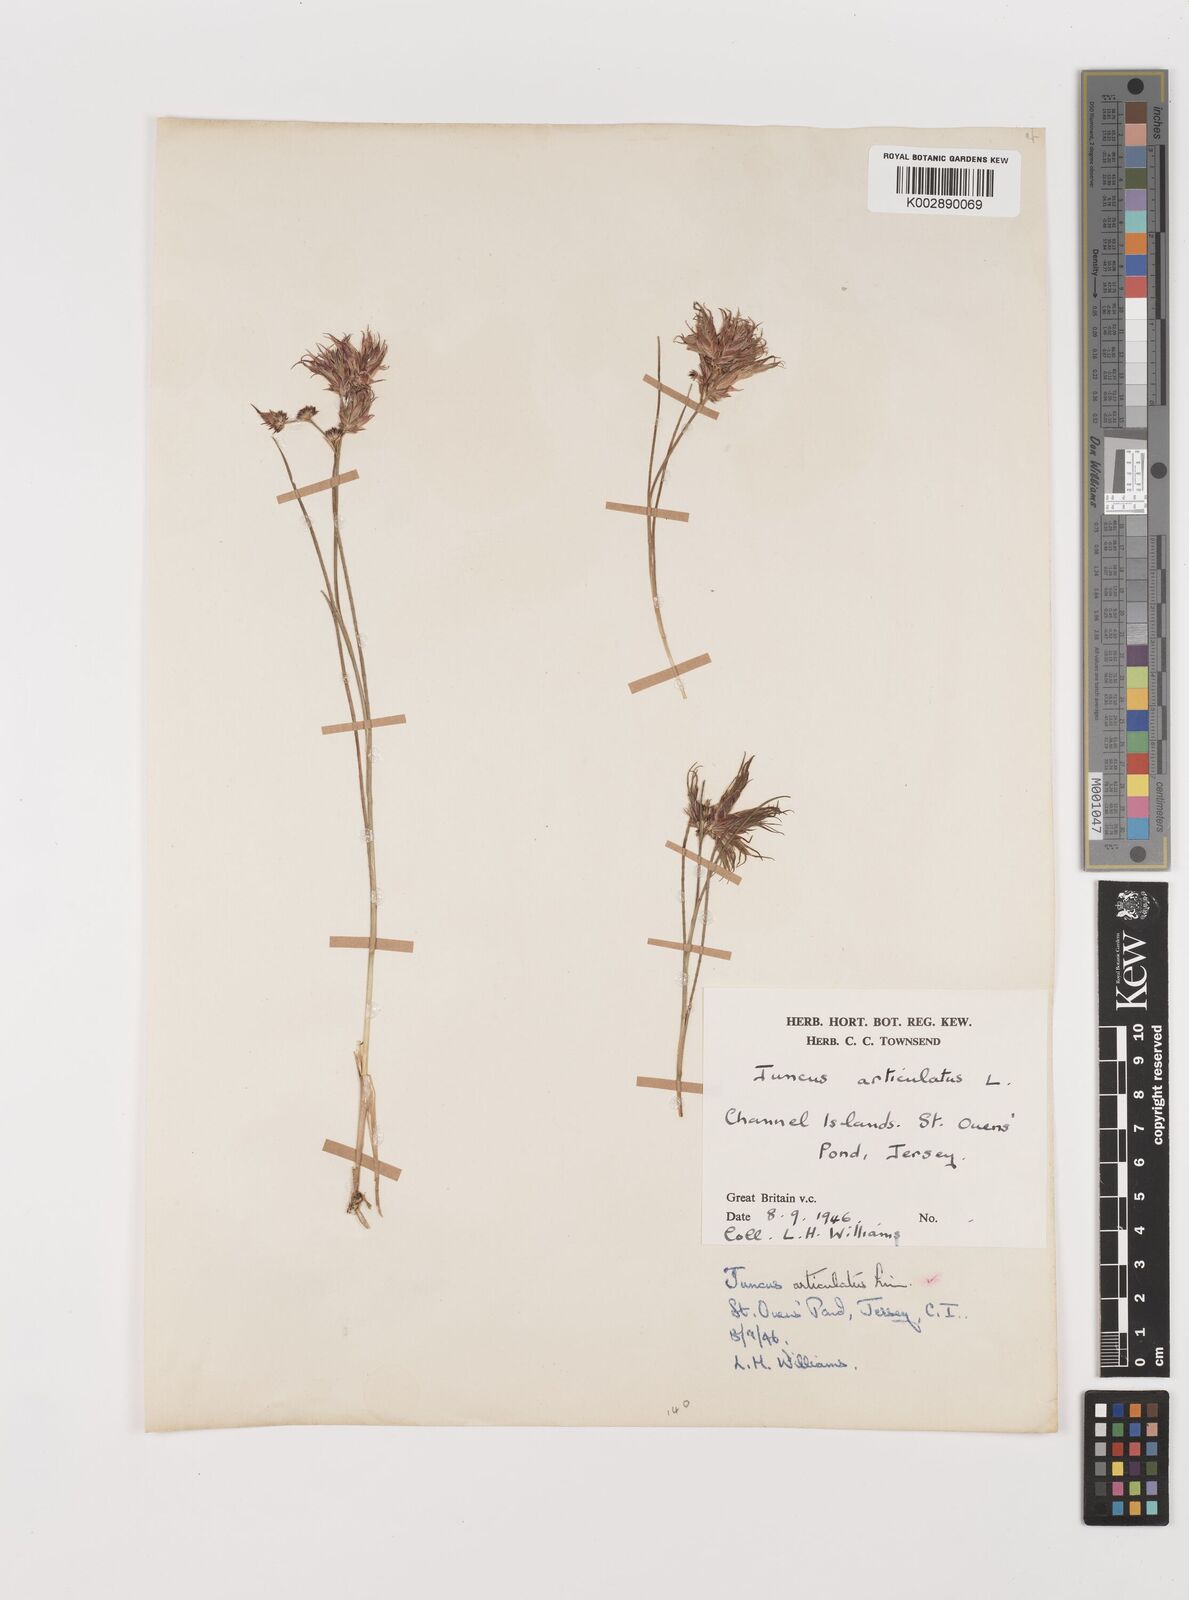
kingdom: Plantae
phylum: Tracheophyta
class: Liliopsida
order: Poales
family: Juncaceae
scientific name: Juncaceae
